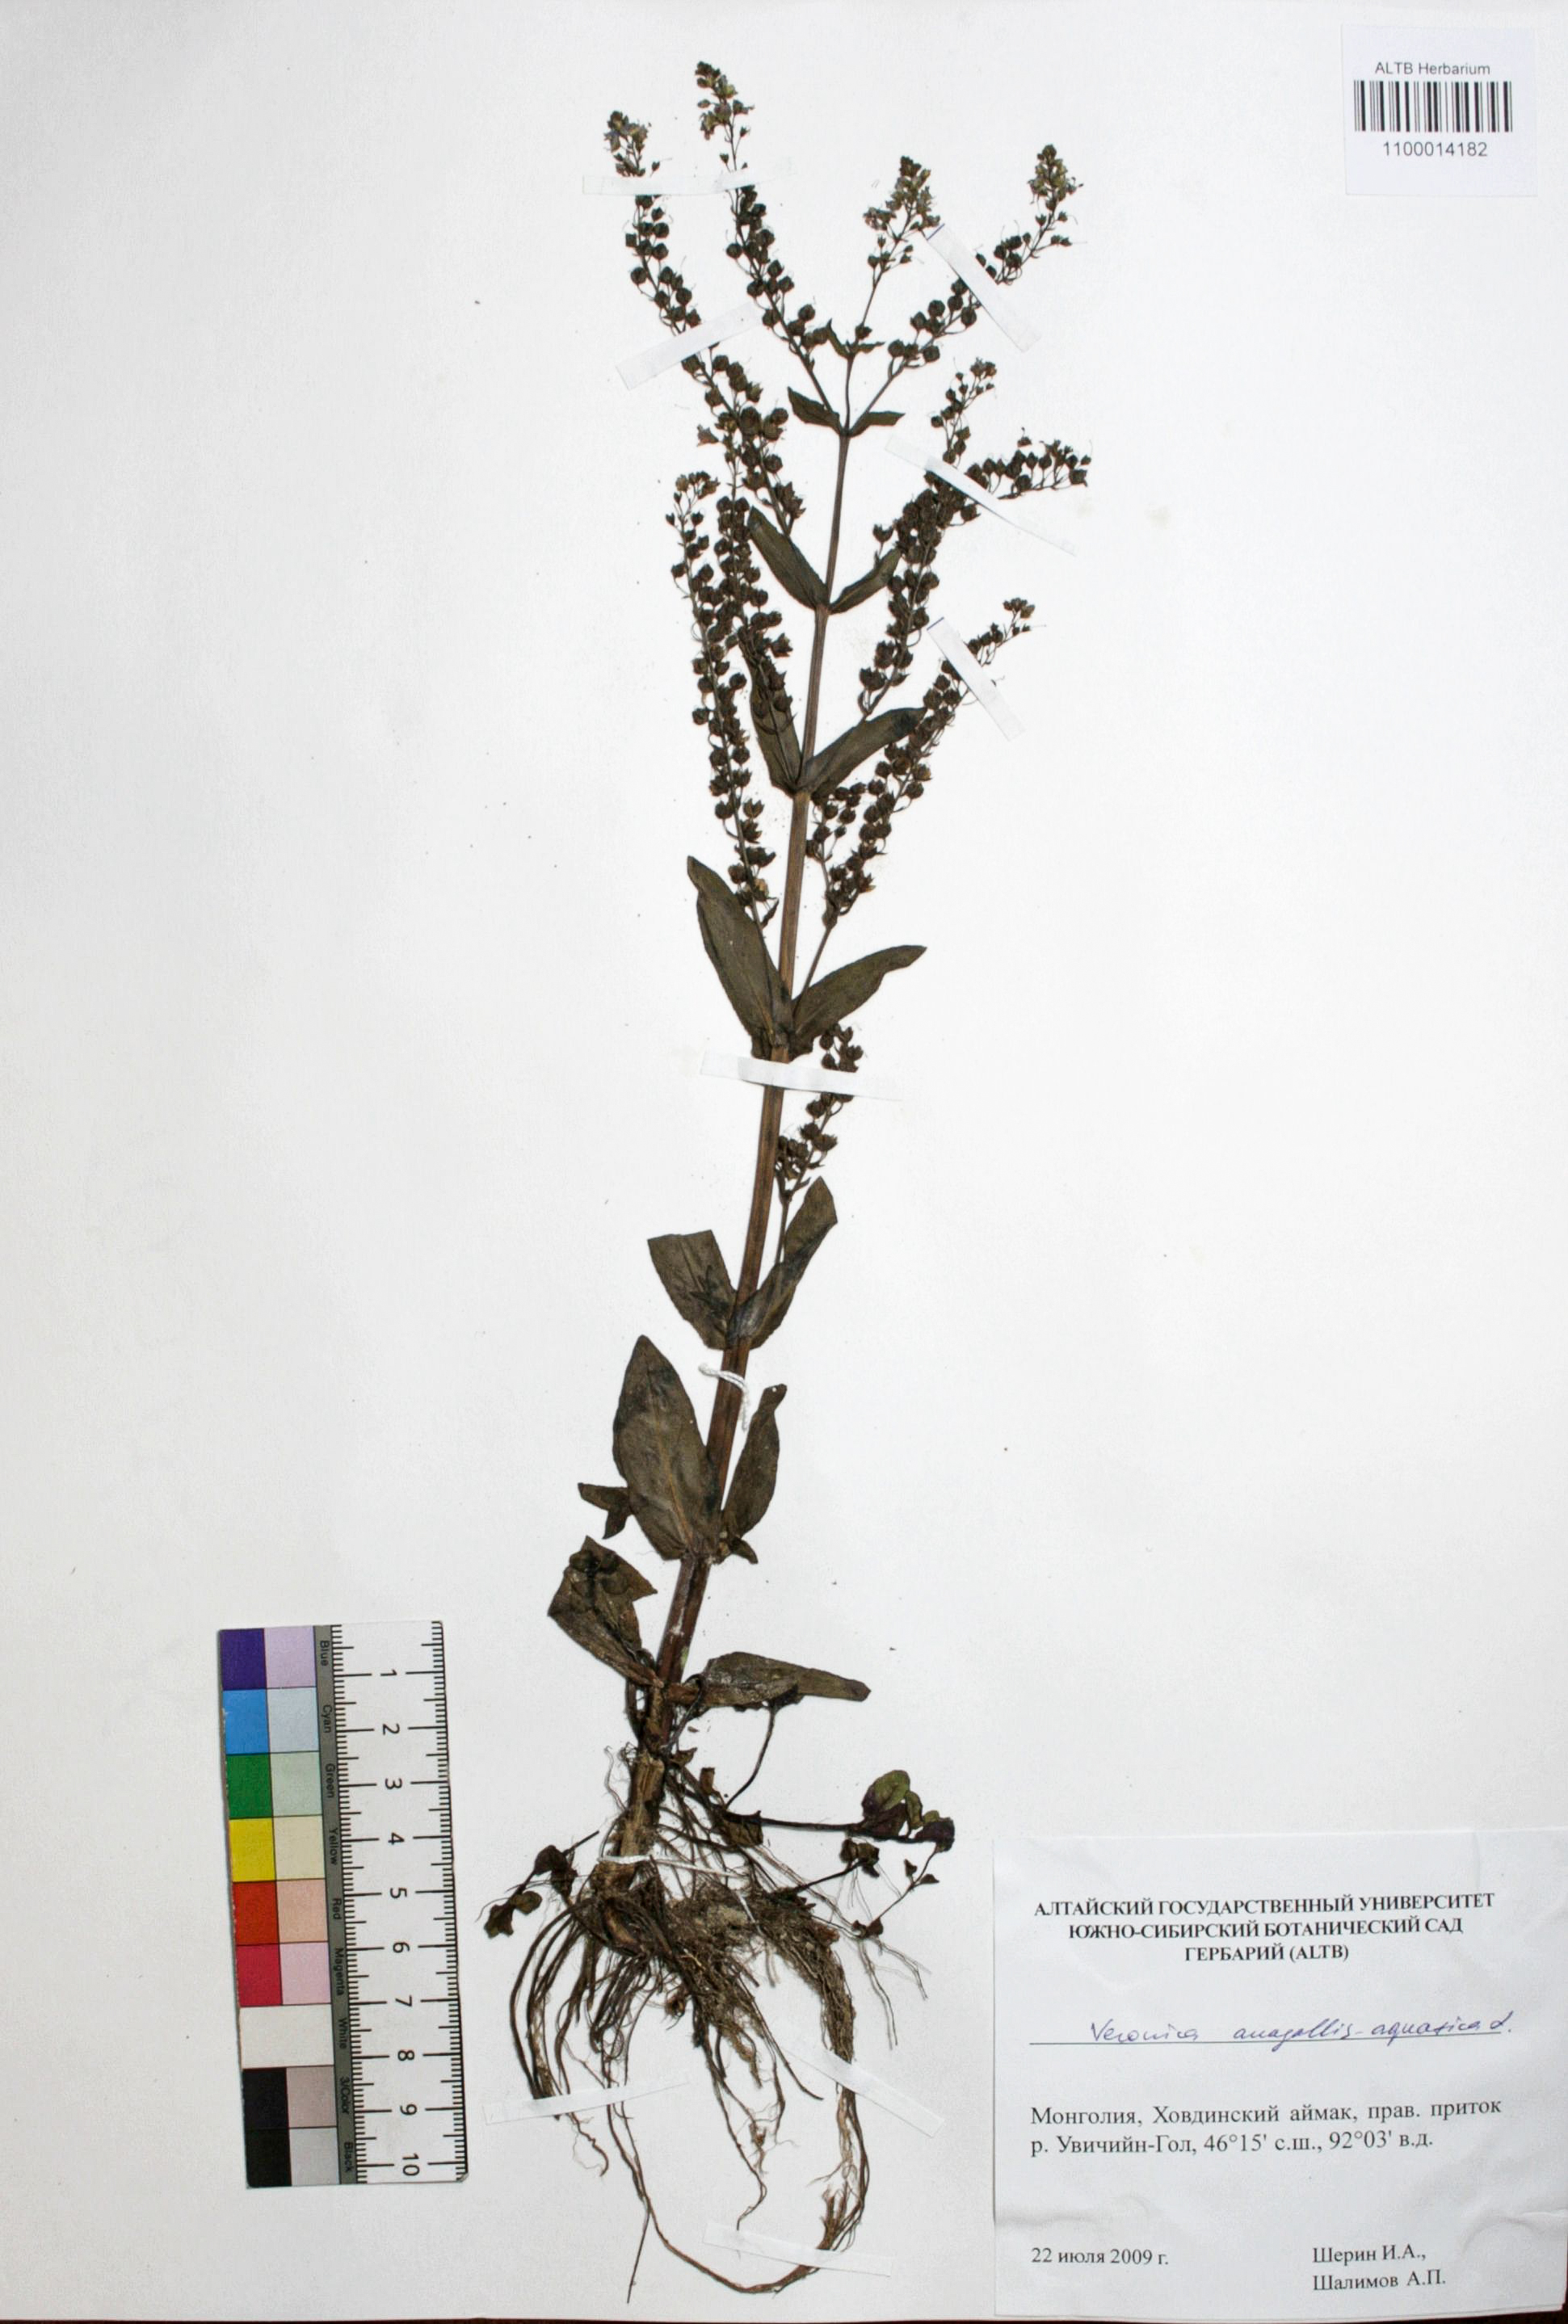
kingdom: Plantae
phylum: Tracheophyta
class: Magnoliopsida
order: Lamiales
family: Plantaginaceae
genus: Veronica
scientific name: Veronica anagallis-aquatica
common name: Water speedwell
